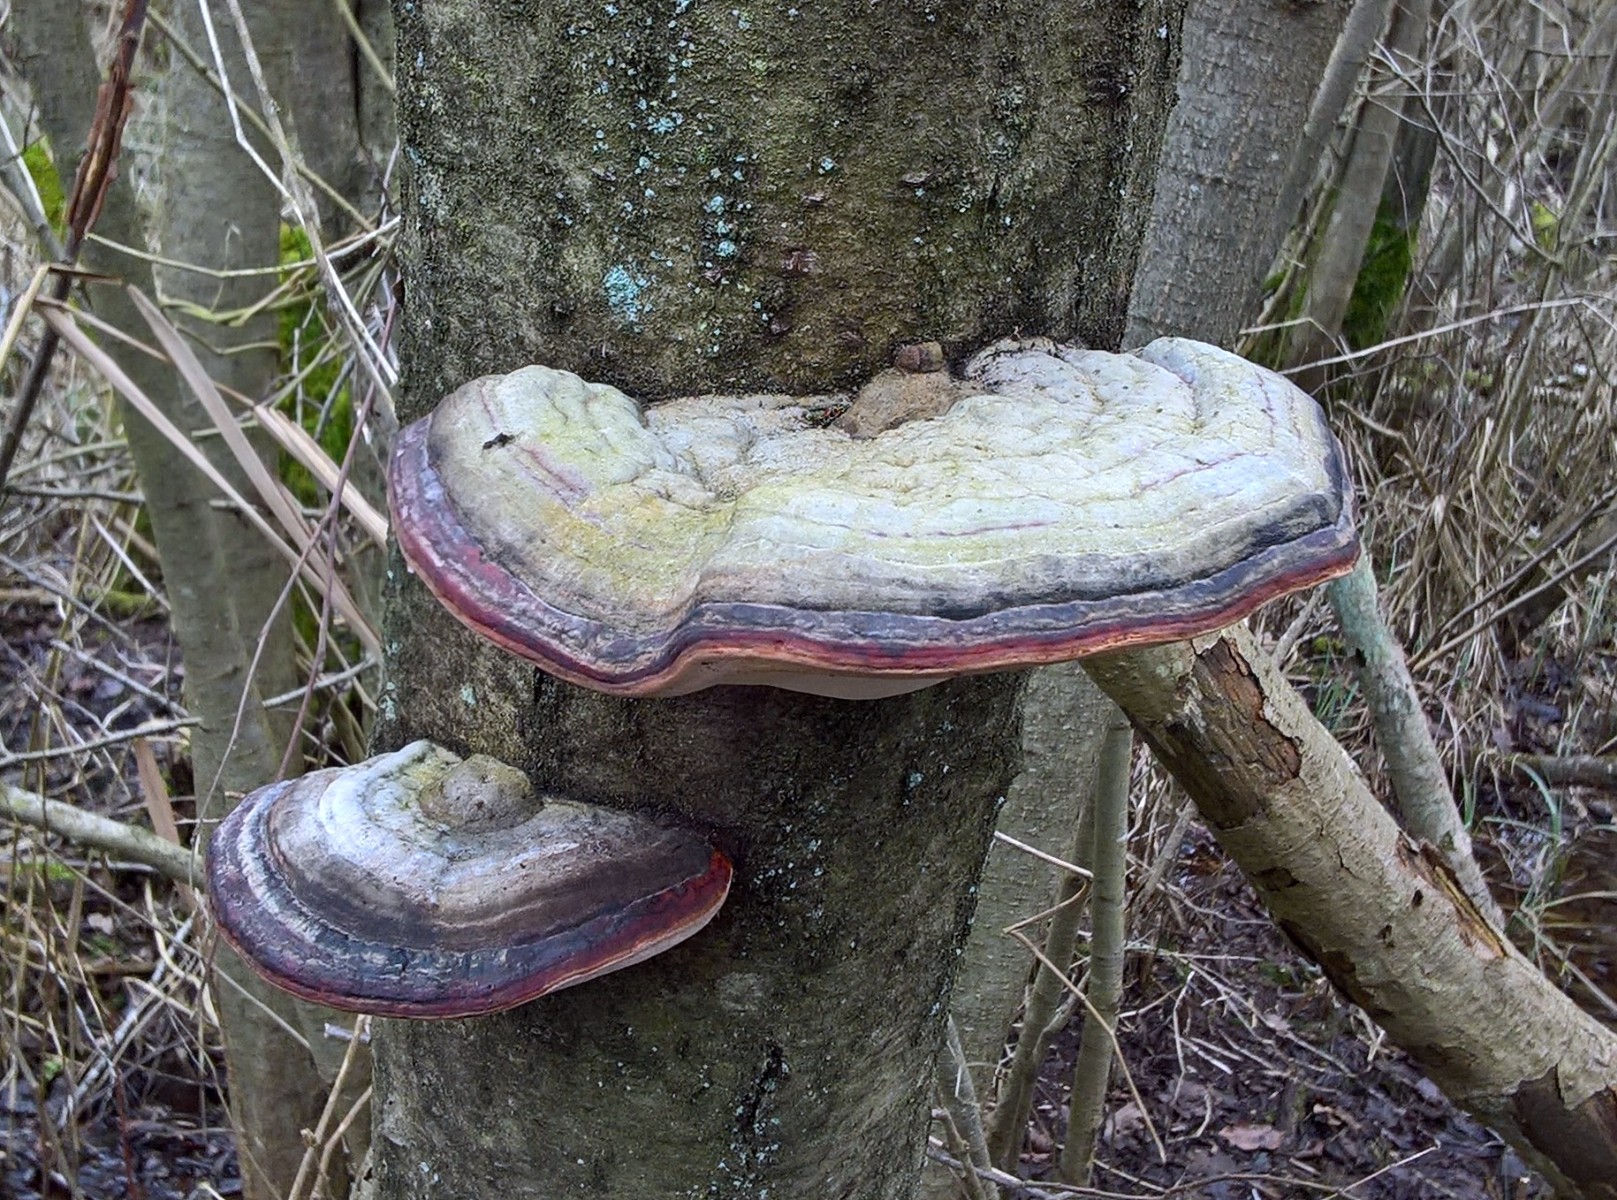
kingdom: Fungi
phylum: Basidiomycota
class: Agaricomycetes
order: Polyporales
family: Fomitopsidaceae
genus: Fomitopsis
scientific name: Fomitopsis pinicola
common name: randbæltet hovporesvamp
